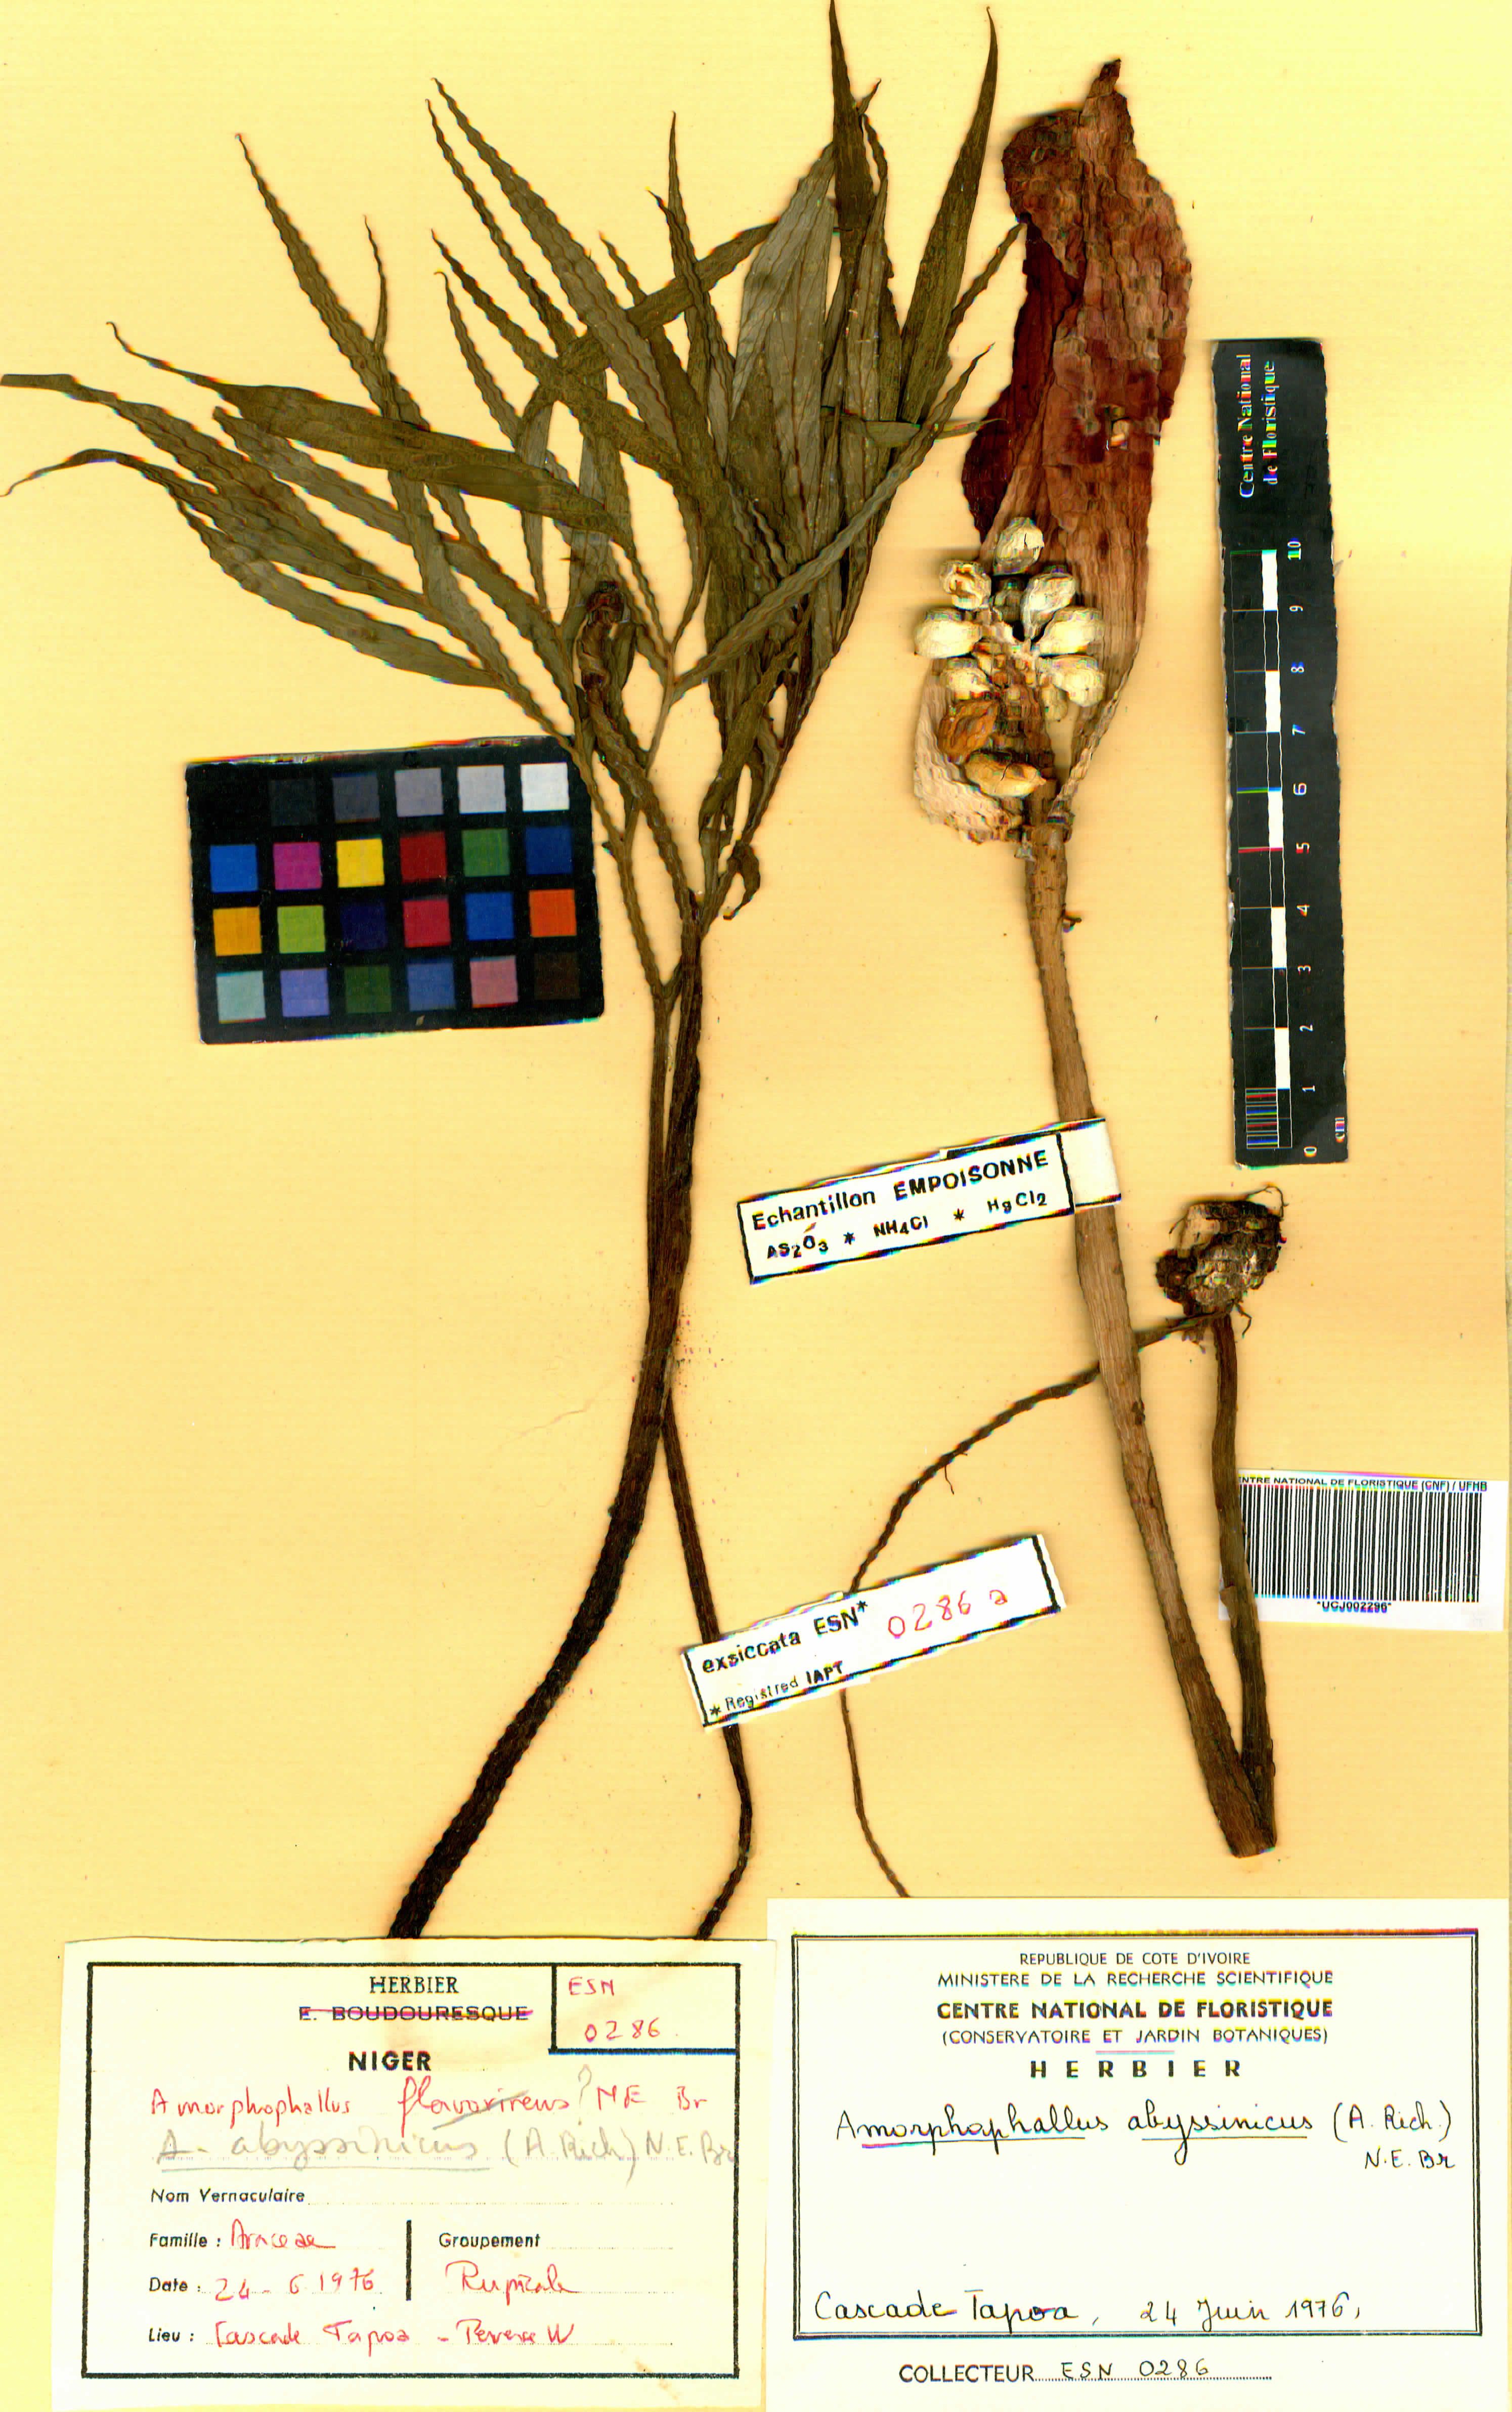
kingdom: Plantae
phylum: Tracheophyta
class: Liliopsida
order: Alismatales
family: Araceae
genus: Amorphophallus
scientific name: Amorphophallus abyssinicus
